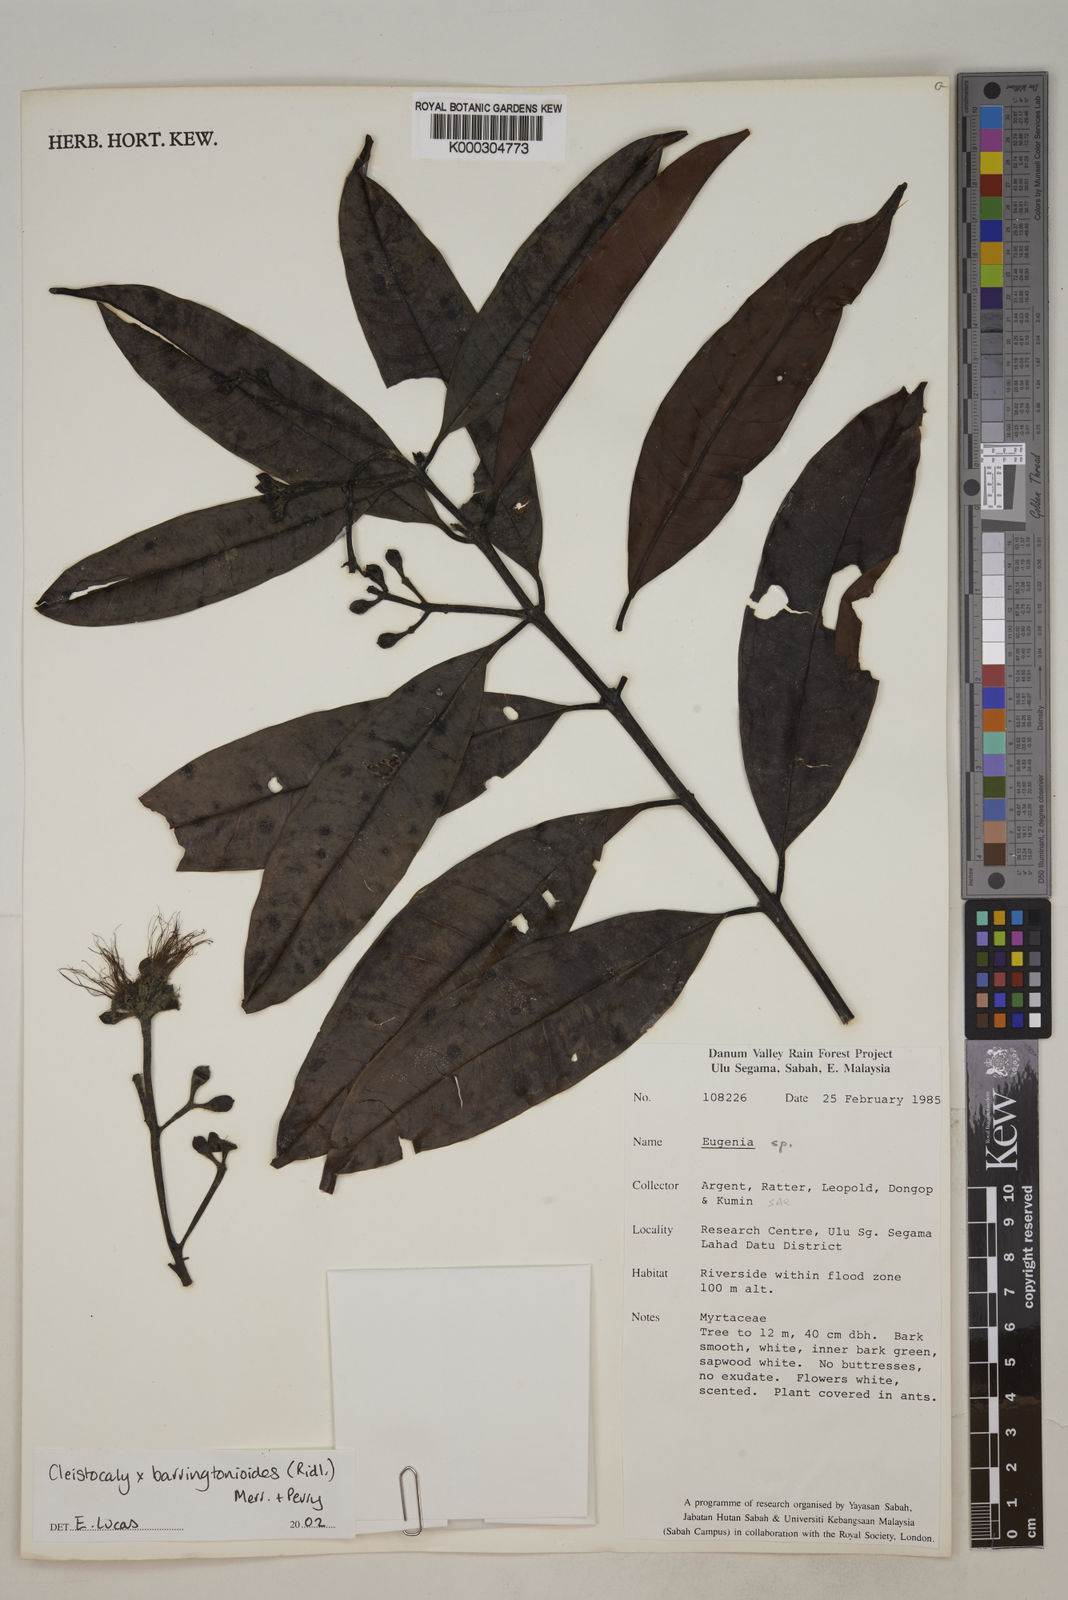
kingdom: Plantae
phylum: Tracheophyta
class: Magnoliopsida
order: Myrtales
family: Myrtaceae
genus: Syzygium
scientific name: Syzygium barringtonioides
